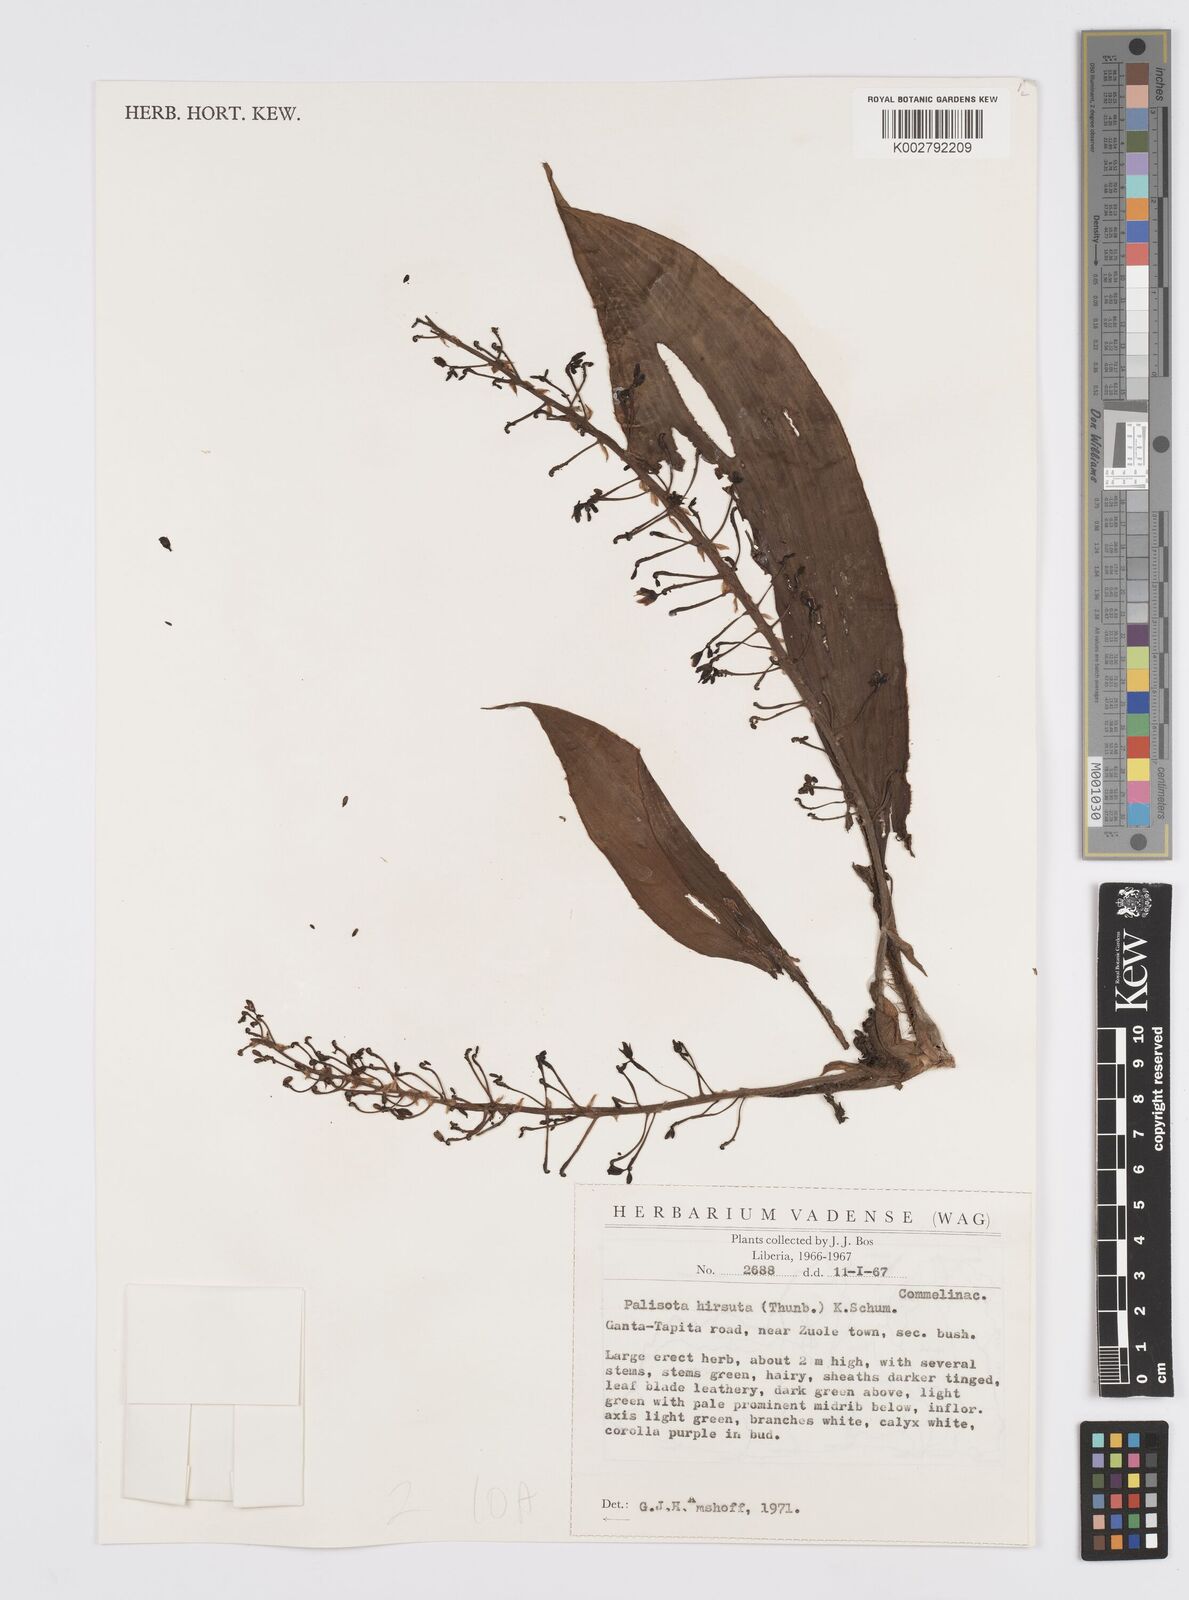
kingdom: Plantae
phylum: Tracheophyta
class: Liliopsida
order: Commelinales
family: Commelinaceae
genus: Palisota
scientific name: Palisota hirsuta
